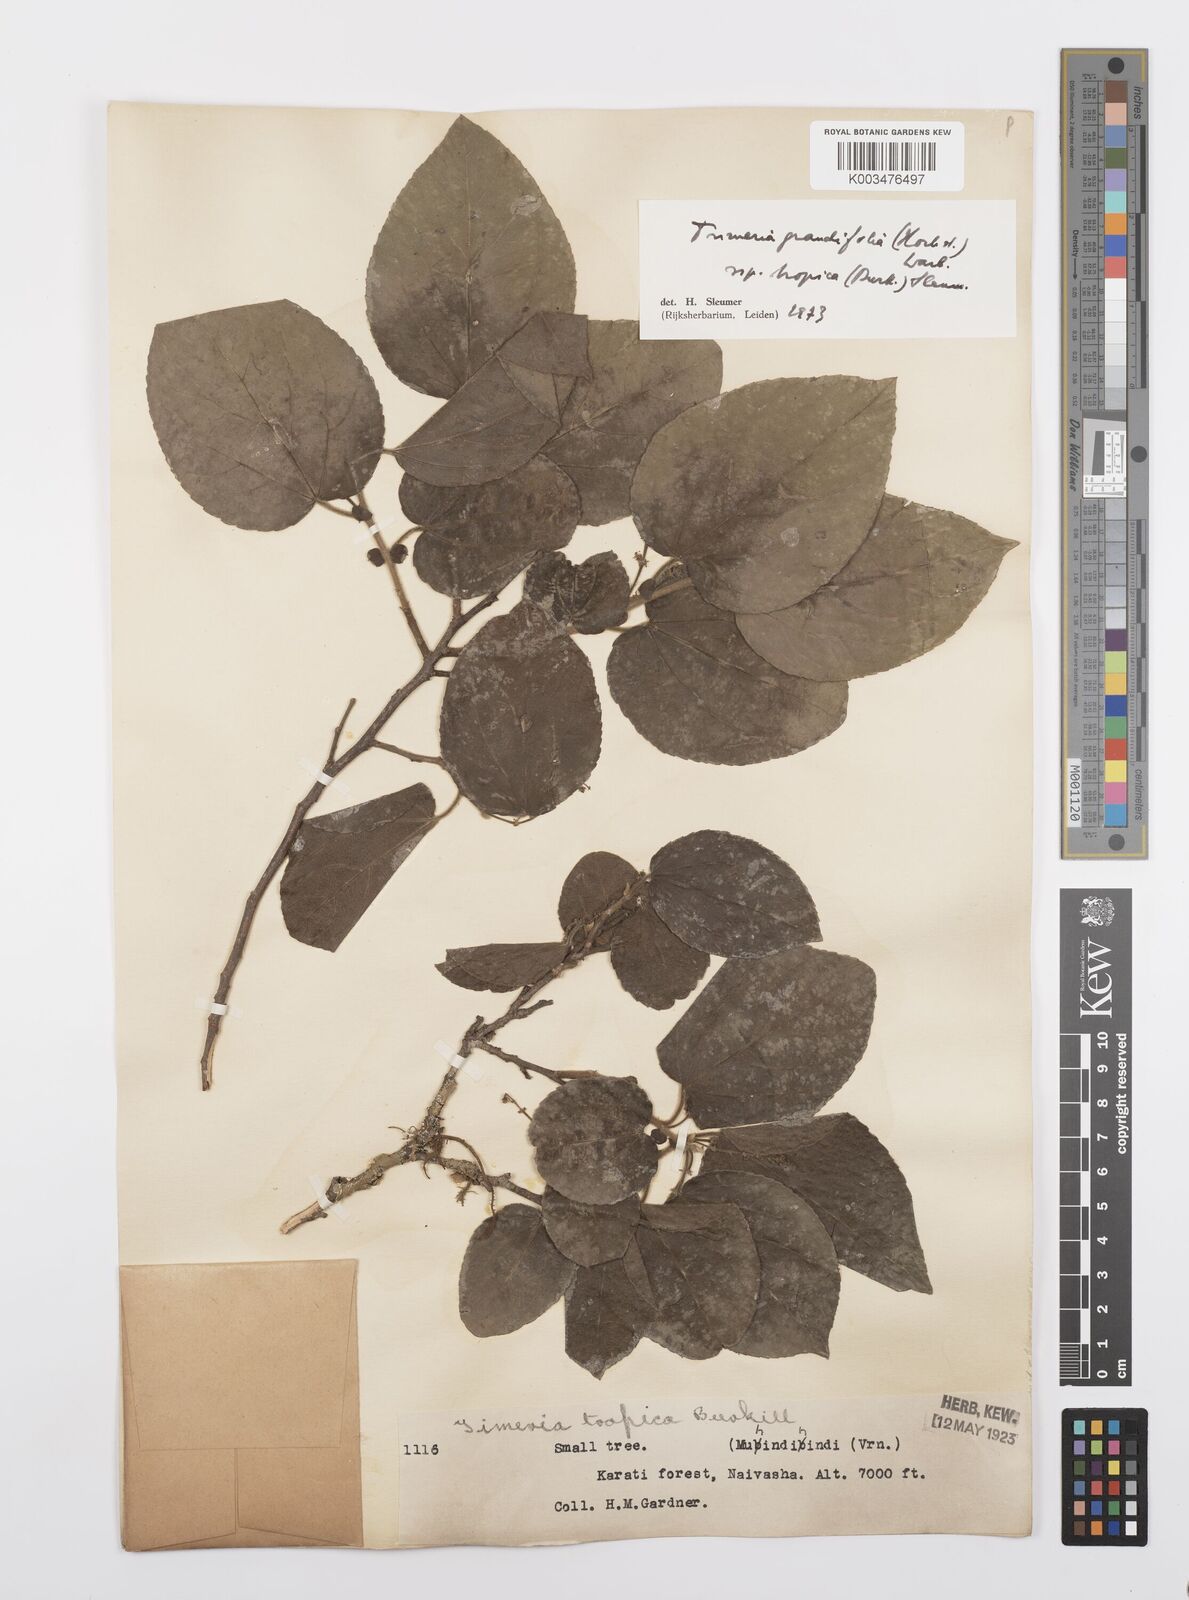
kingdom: Plantae
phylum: Tracheophyta
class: Magnoliopsida
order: Malpighiales
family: Salicaceae
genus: Trimeria
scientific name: Trimeria grandifolia
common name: Wild mulberry
